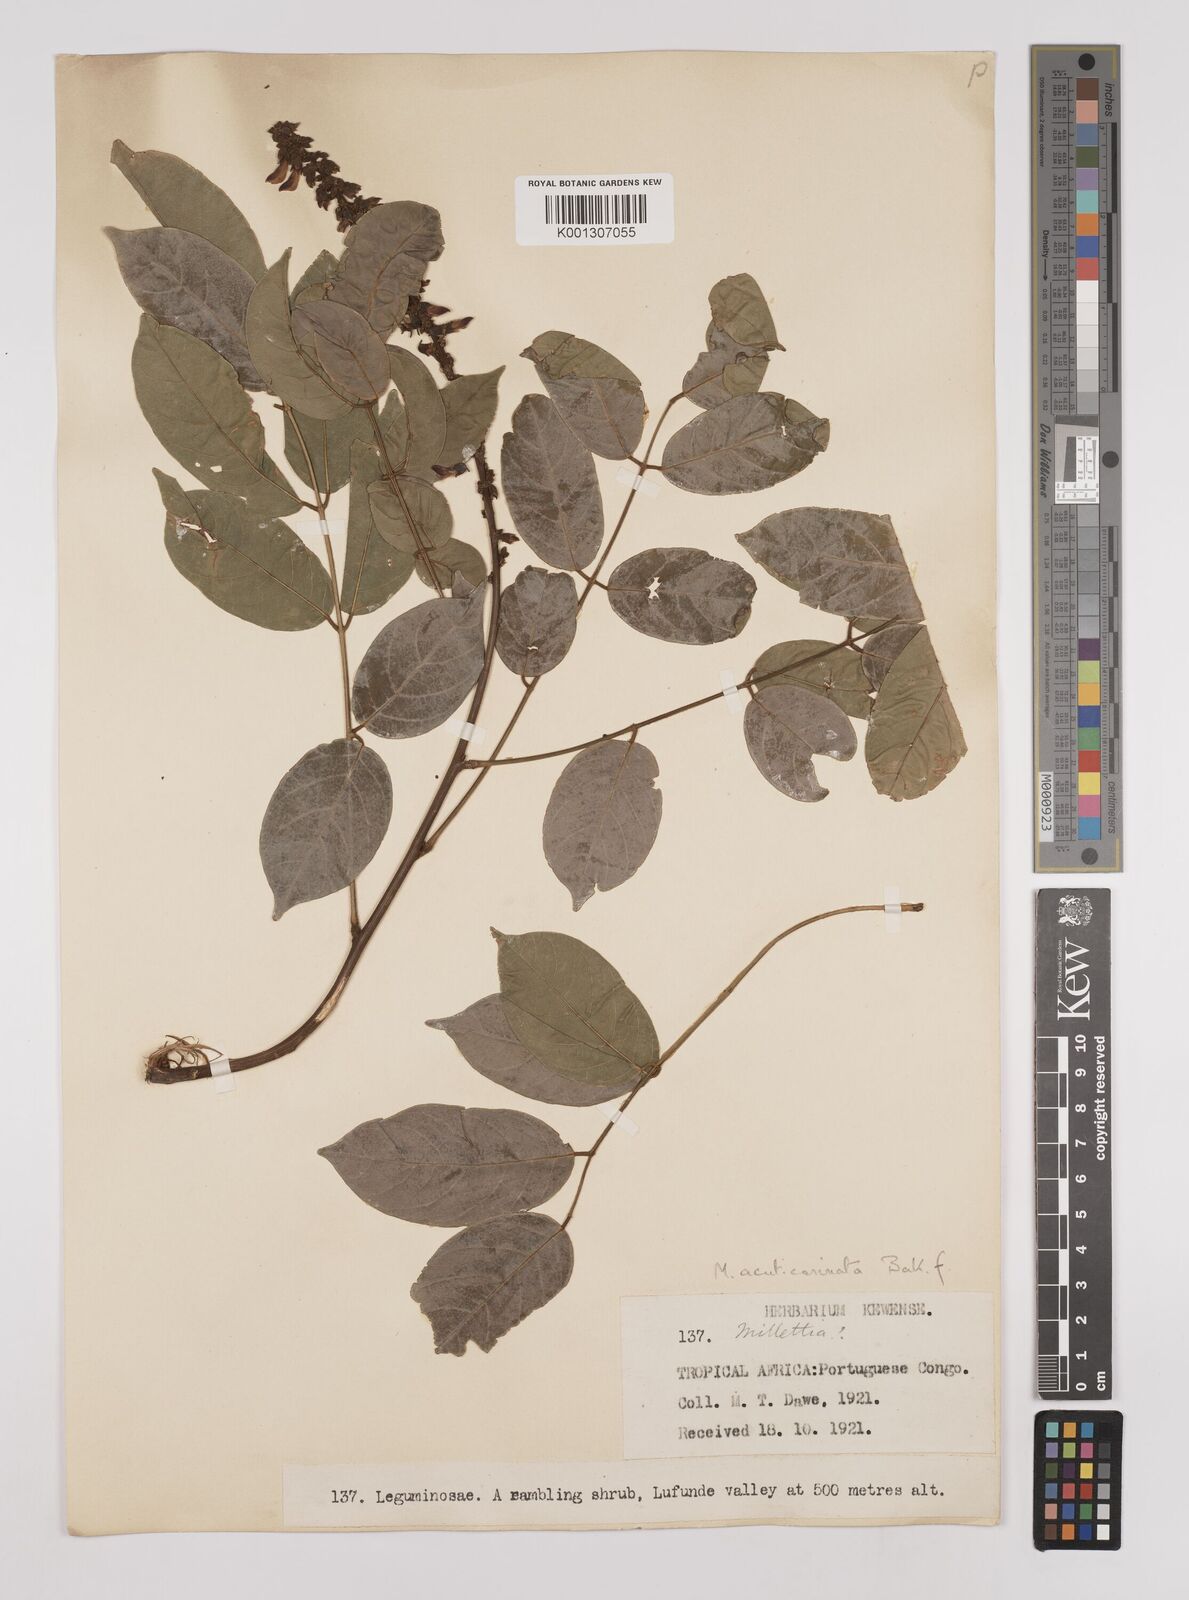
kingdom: Plantae
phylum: Tracheophyta
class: Magnoliopsida
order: Fabales
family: Fabaceae
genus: Millettia
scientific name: Millettia
